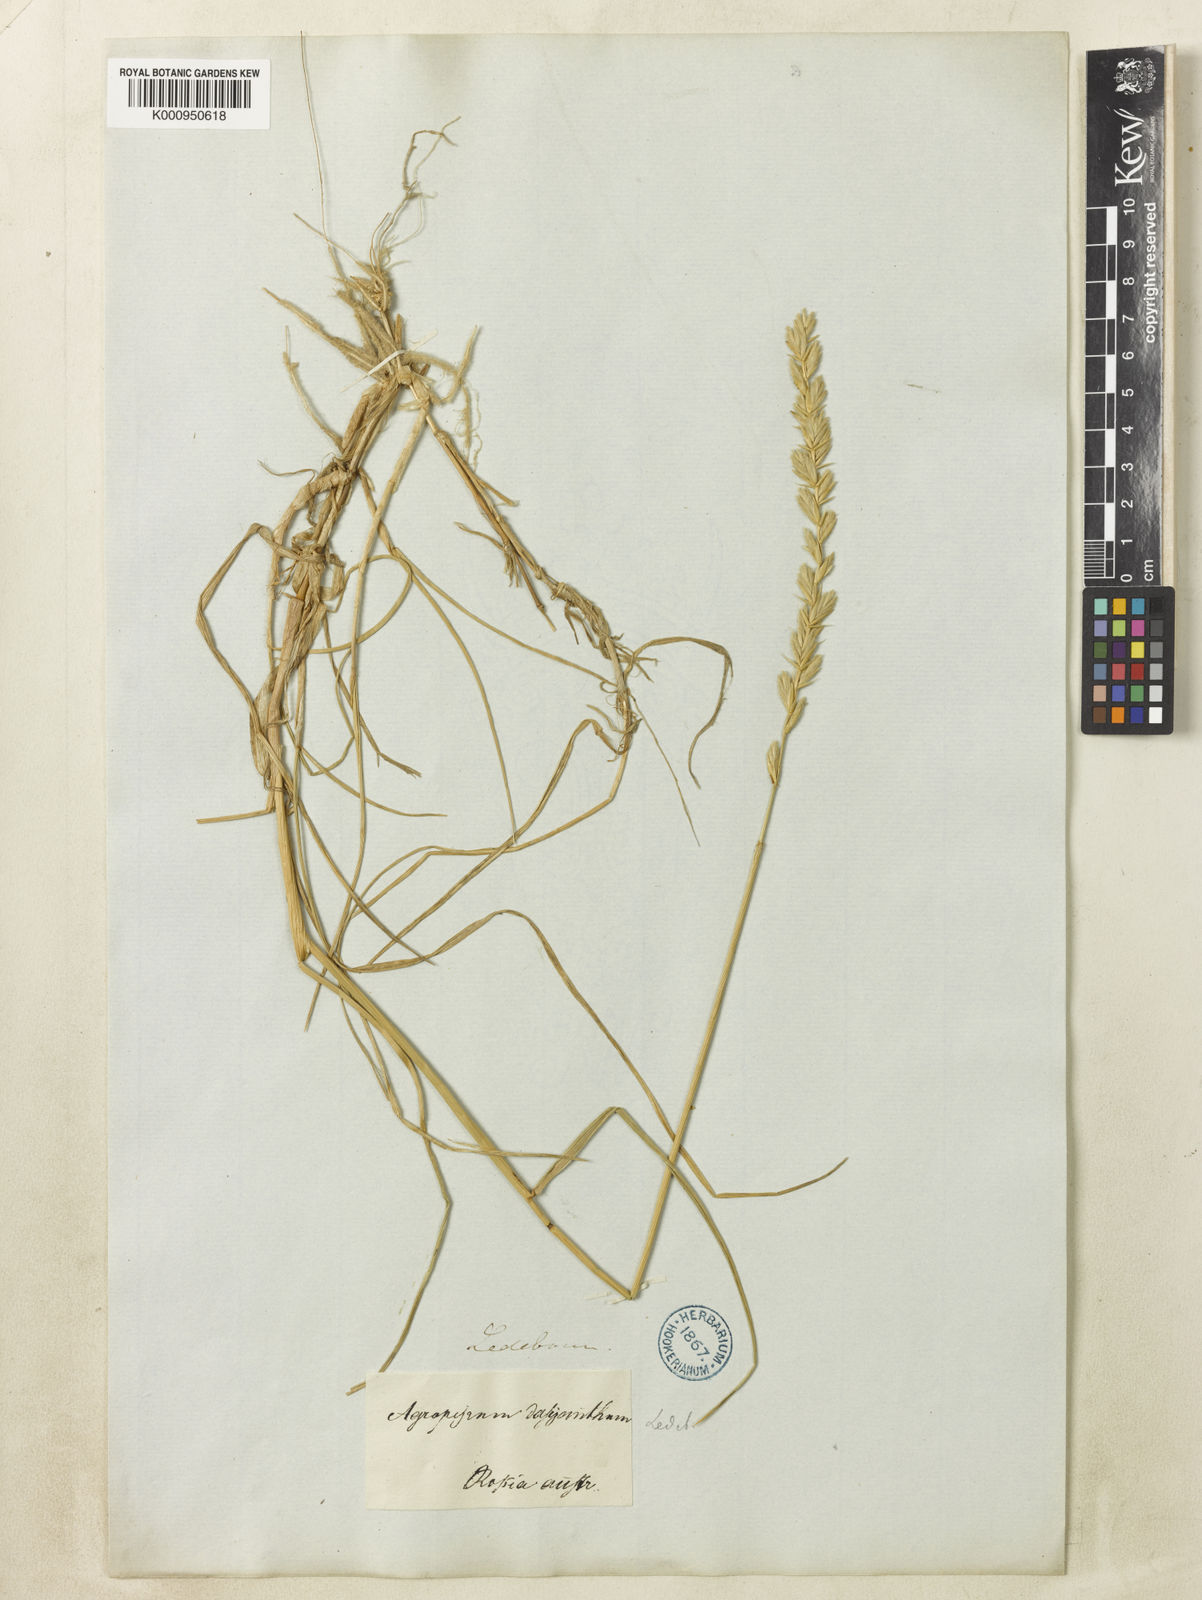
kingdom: Plantae
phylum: Tracheophyta
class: Liliopsida
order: Poales
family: Poaceae
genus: Agropyron
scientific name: Agropyron dasyanthum
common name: Edge flowered crested wheatgrass
